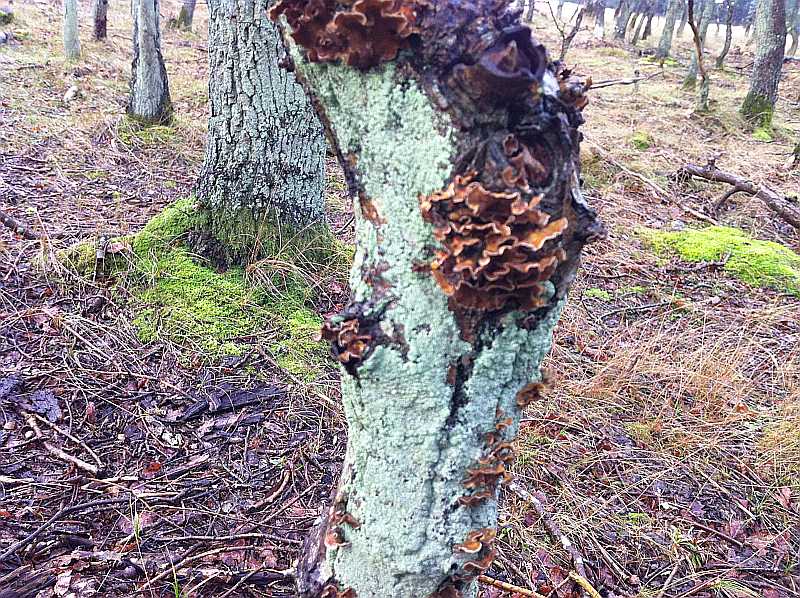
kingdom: Fungi
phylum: Basidiomycota
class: Agaricomycetes
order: Russulales
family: Stereaceae
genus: Stereum
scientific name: Stereum gausapatum
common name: tynd lædersvamp
